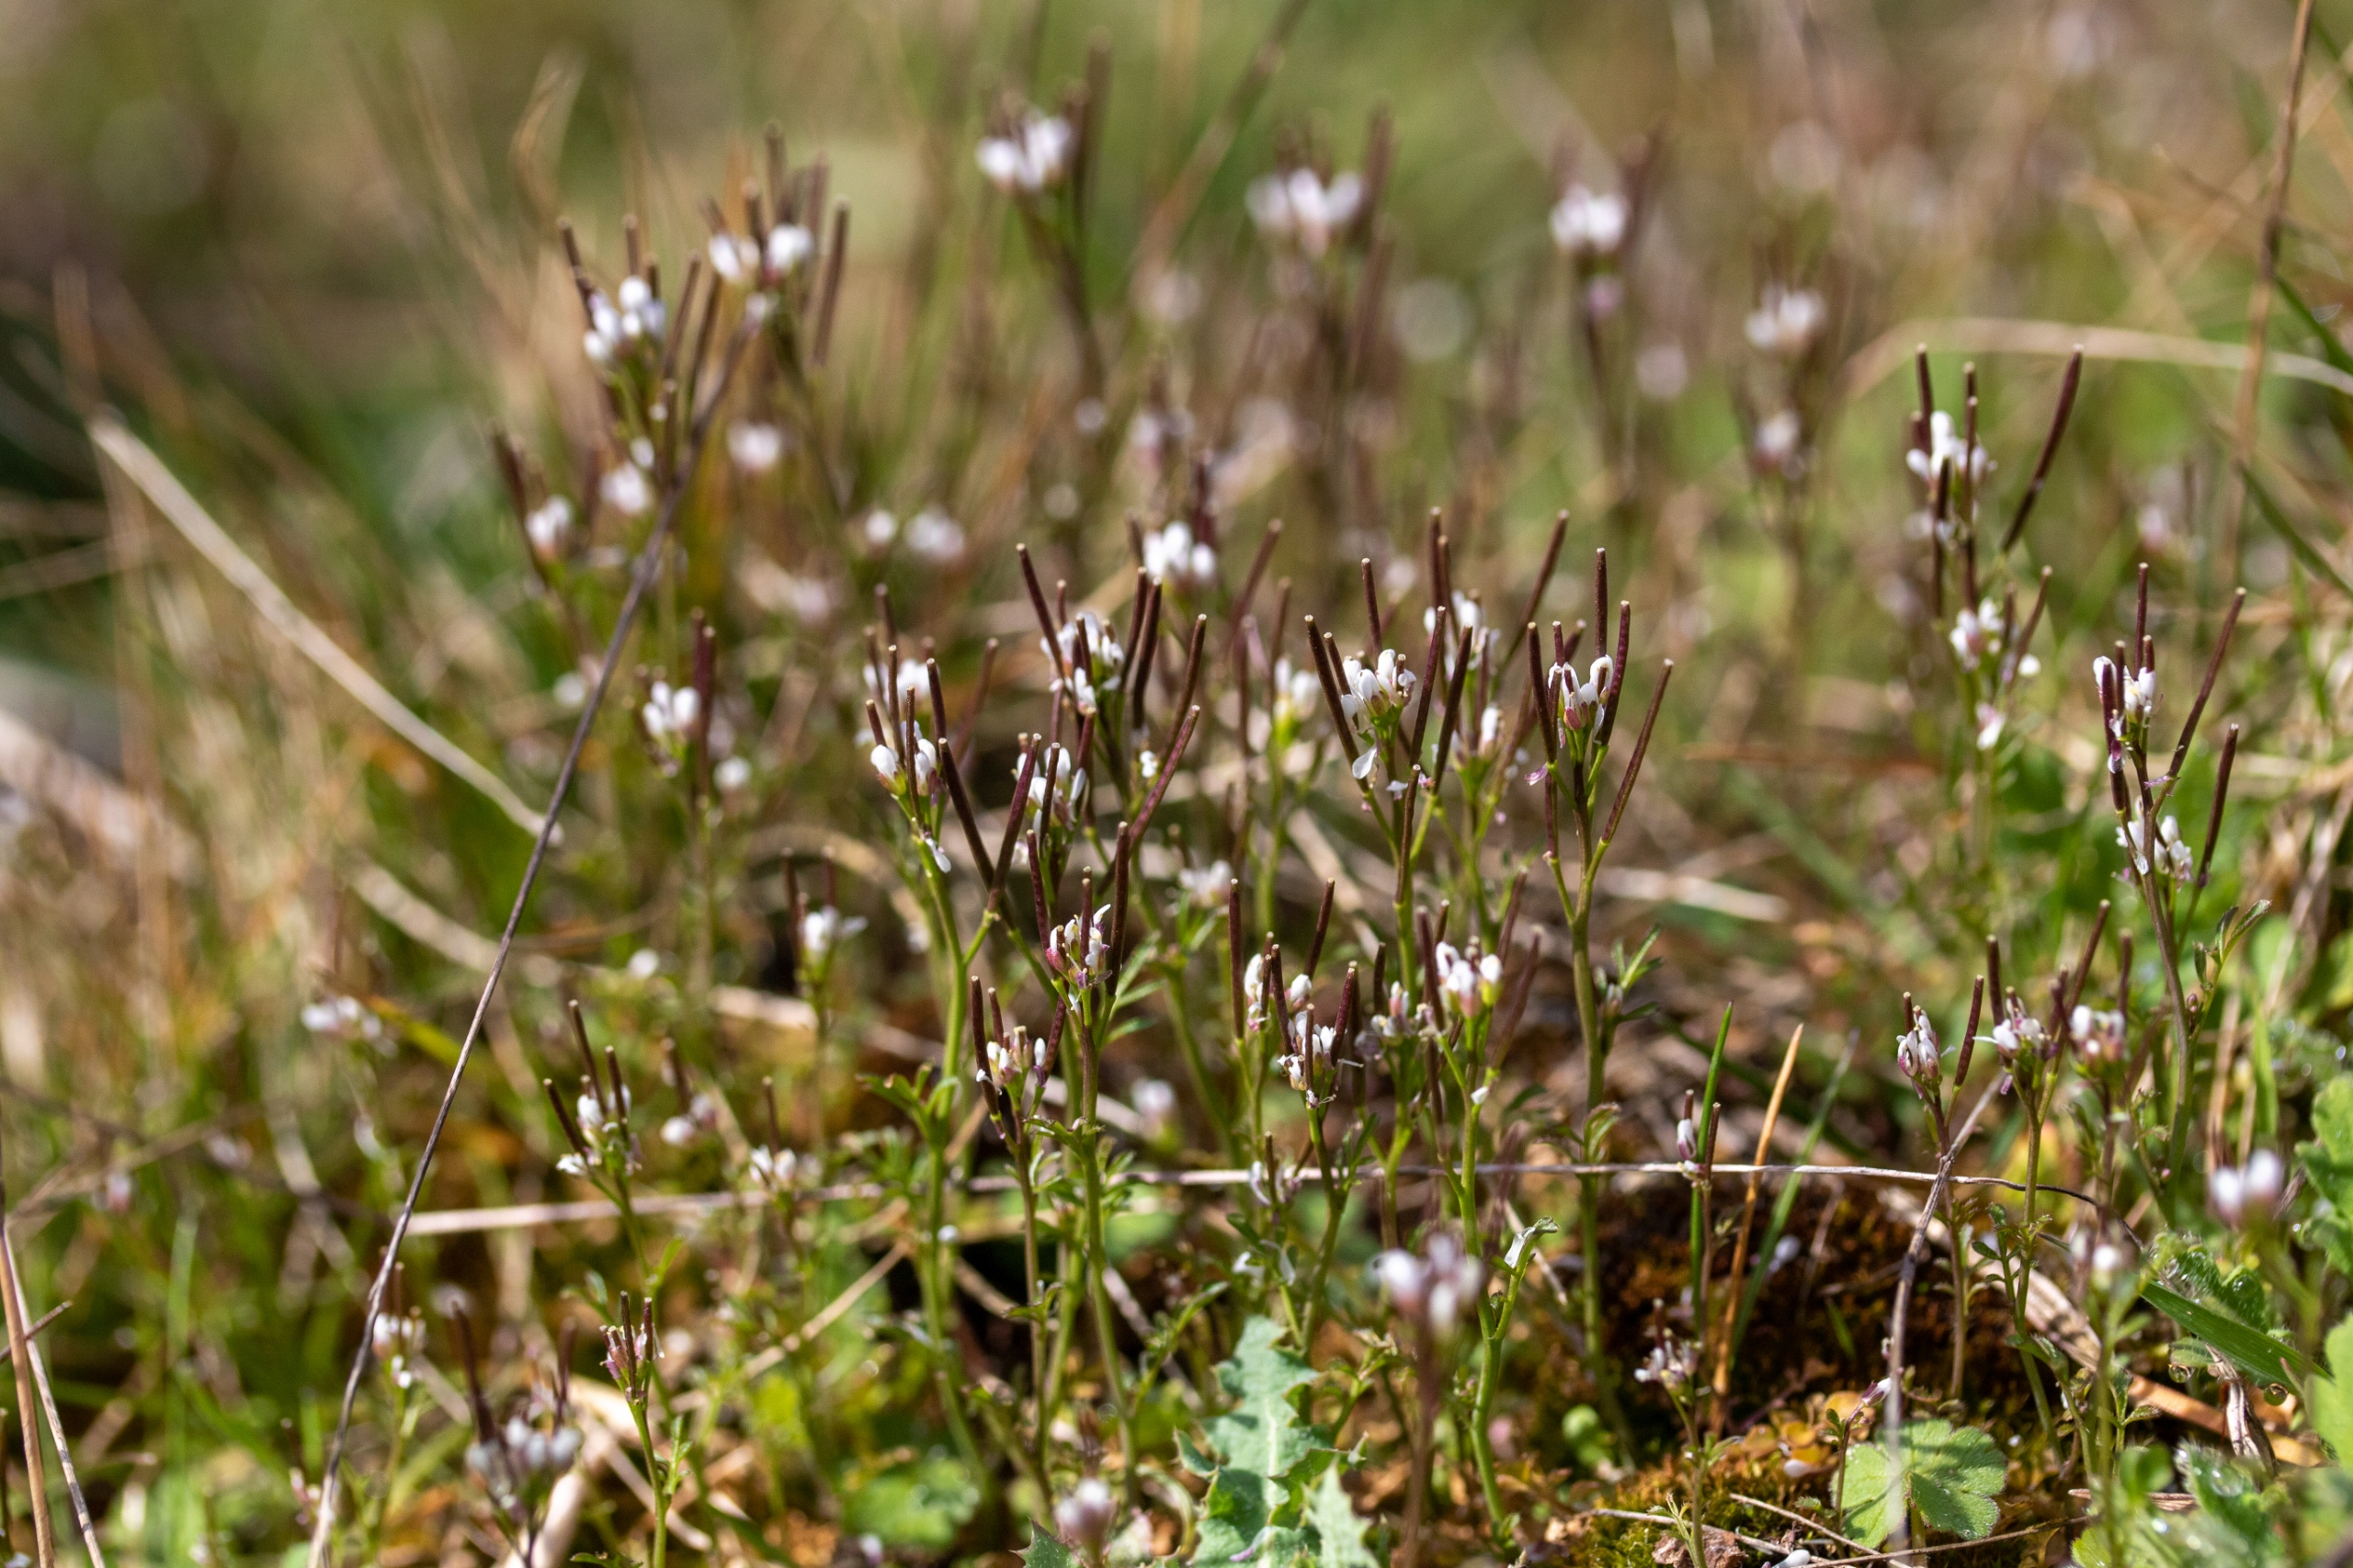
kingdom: Plantae
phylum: Tracheophyta
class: Magnoliopsida
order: Brassicales
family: Brassicaceae
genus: Cardamine
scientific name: Cardamine hirsuta
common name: Roset-springklap
